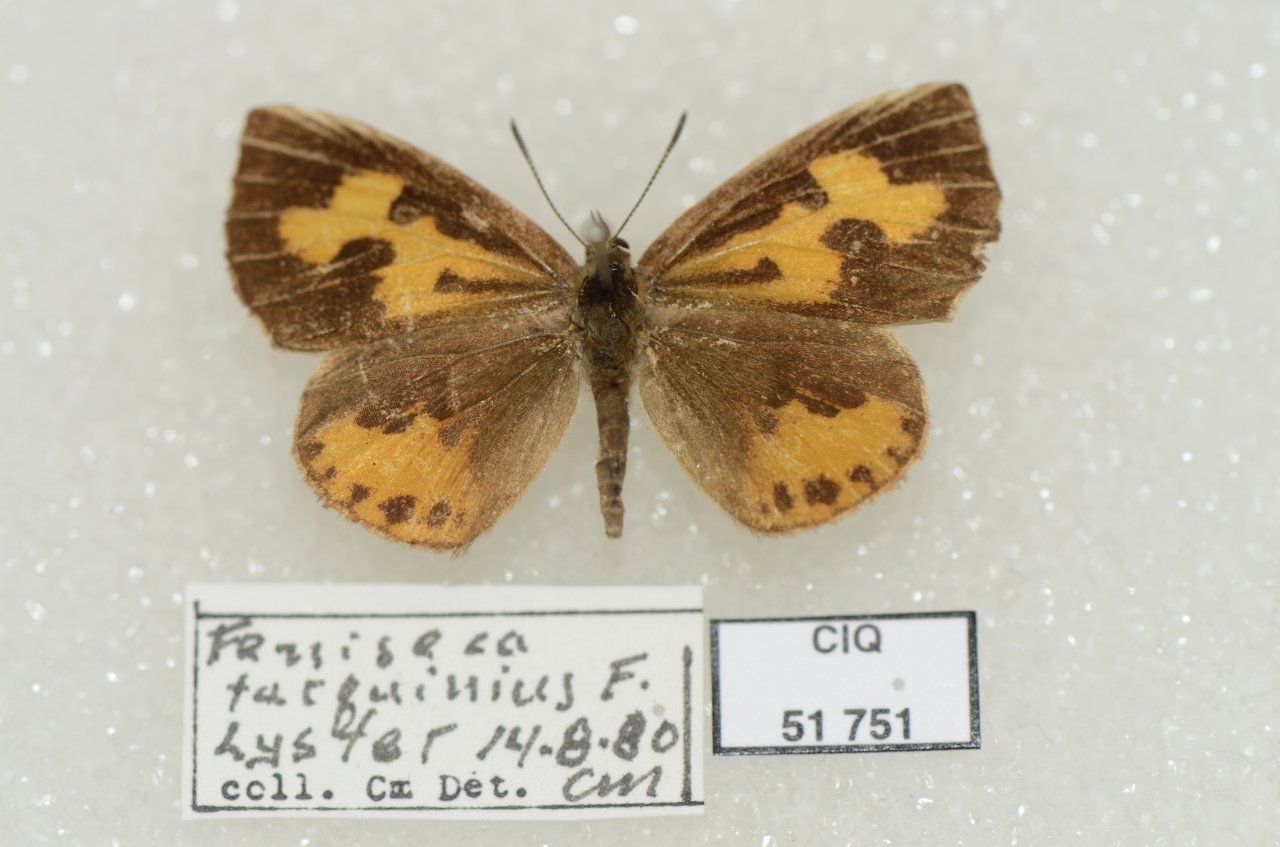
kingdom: Animalia
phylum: Arthropoda
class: Insecta
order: Lepidoptera
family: Lycaenidae
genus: Feniseca
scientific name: Feniseca tarquinius
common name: Harvester
